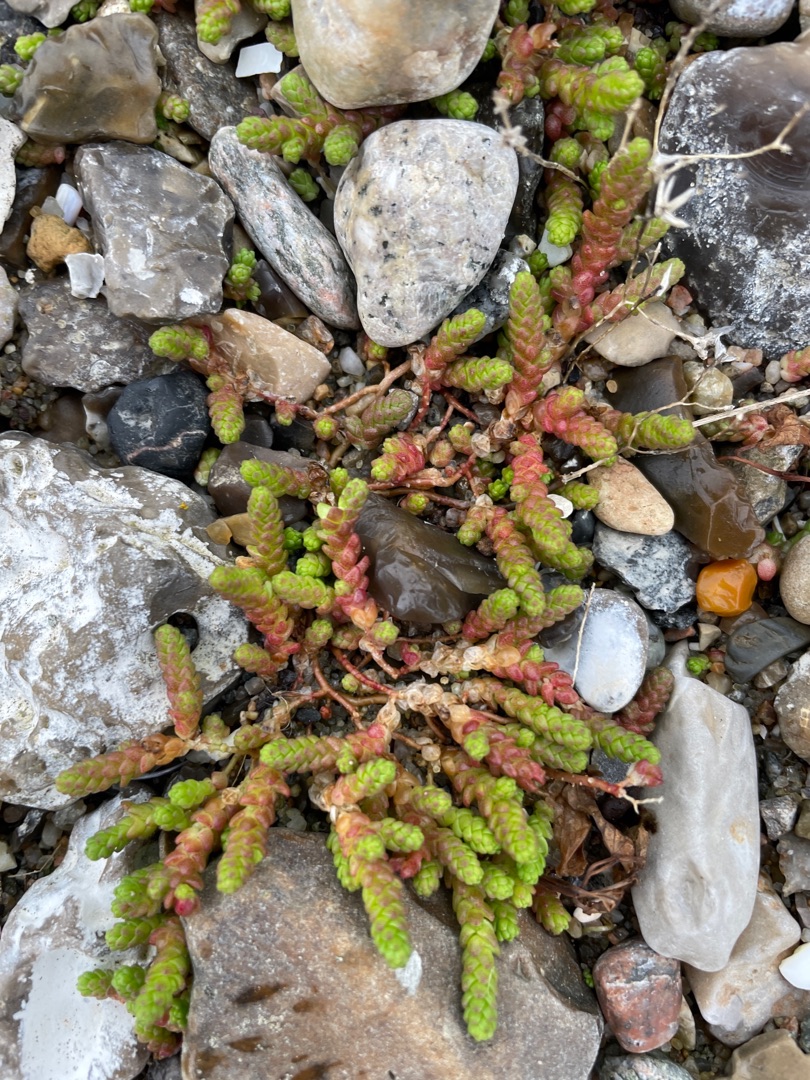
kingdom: Plantae
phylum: Tracheophyta
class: Magnoliopsida
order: Saxifragales
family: Crassulaceae
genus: Sedum
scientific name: Sedum acre
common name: Bidende stenurt
